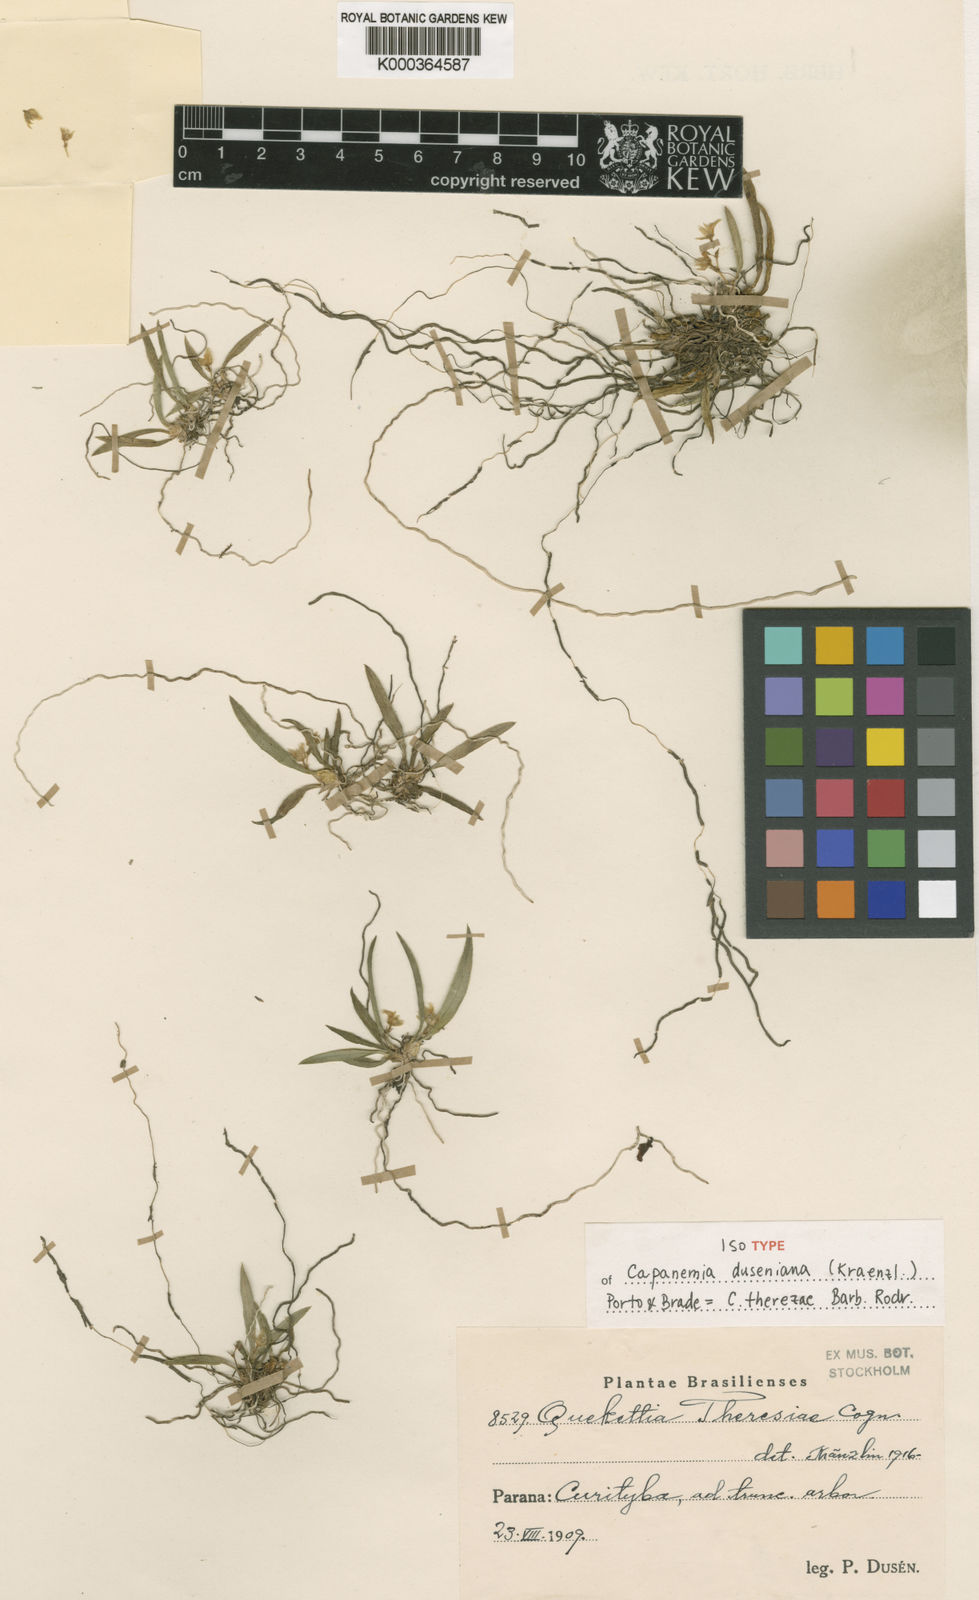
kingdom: Plantae
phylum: Tracheophyta
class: Liliopsida
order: Asparagales
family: Orchidaceae
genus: Capanemia
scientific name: Capanemia theresae
